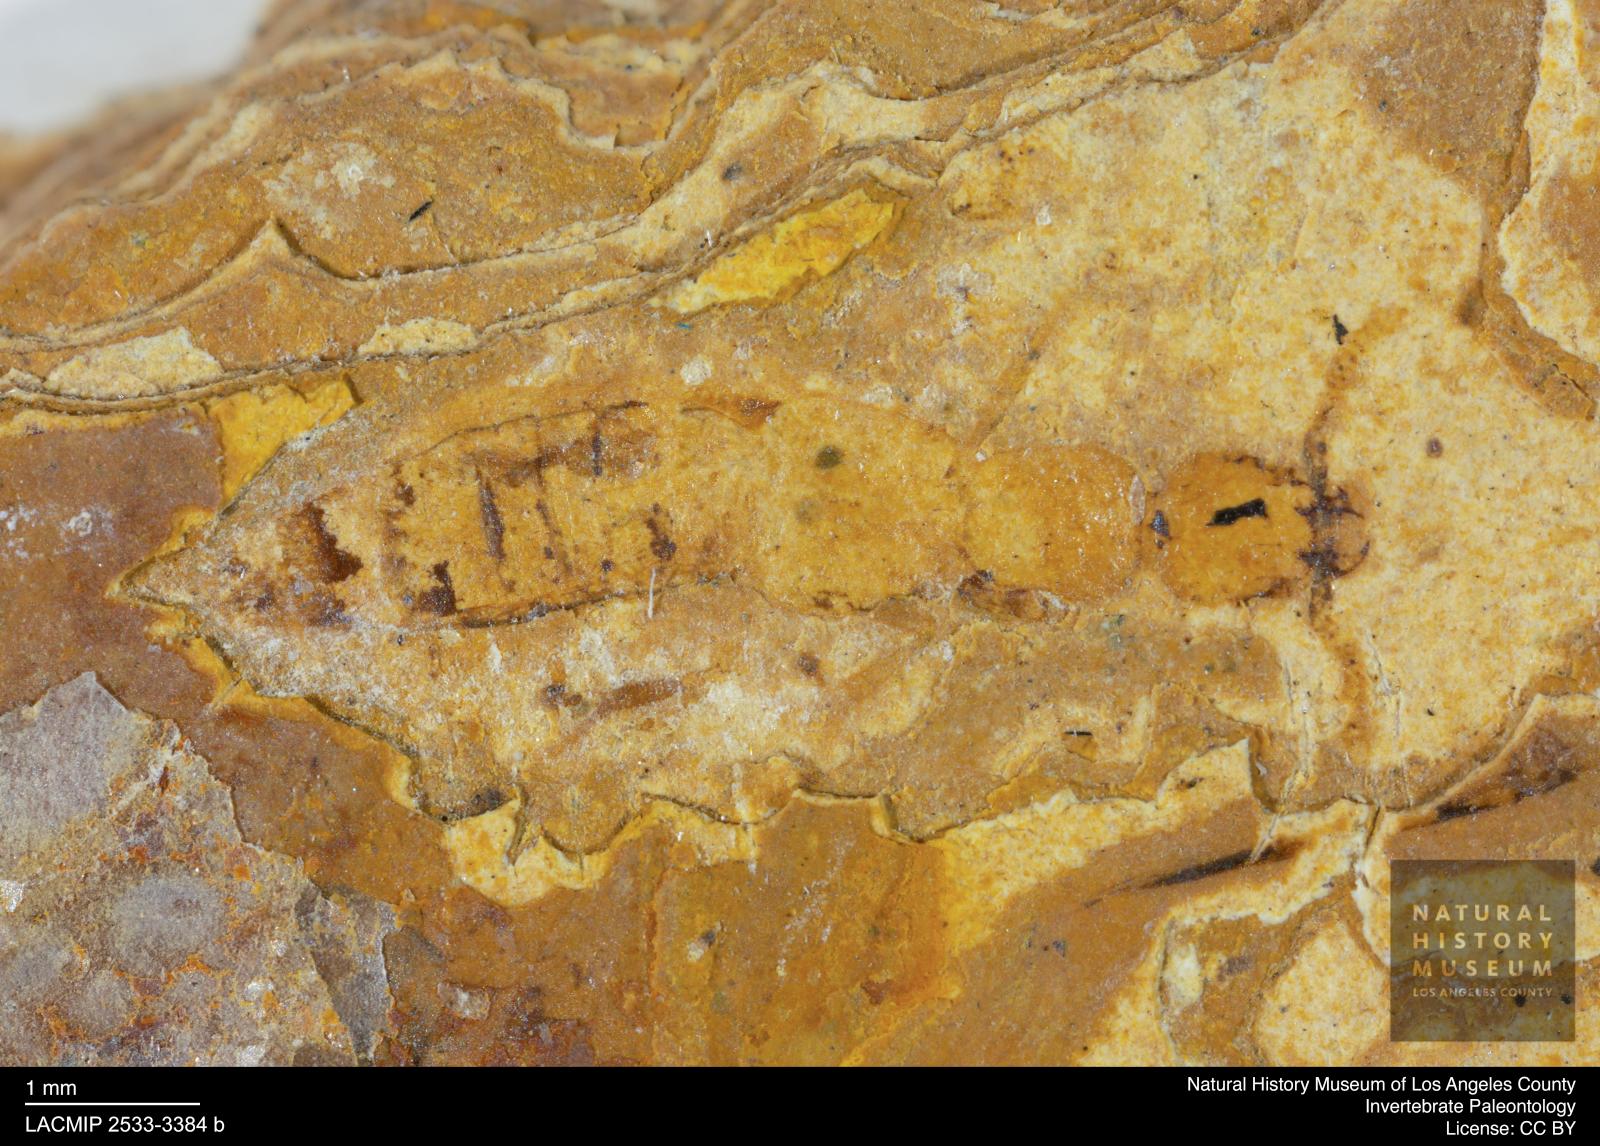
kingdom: Animalia
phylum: Arthropoda
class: Insecta
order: Coleoptera
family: Staphylinidae
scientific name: Staphylinidae
